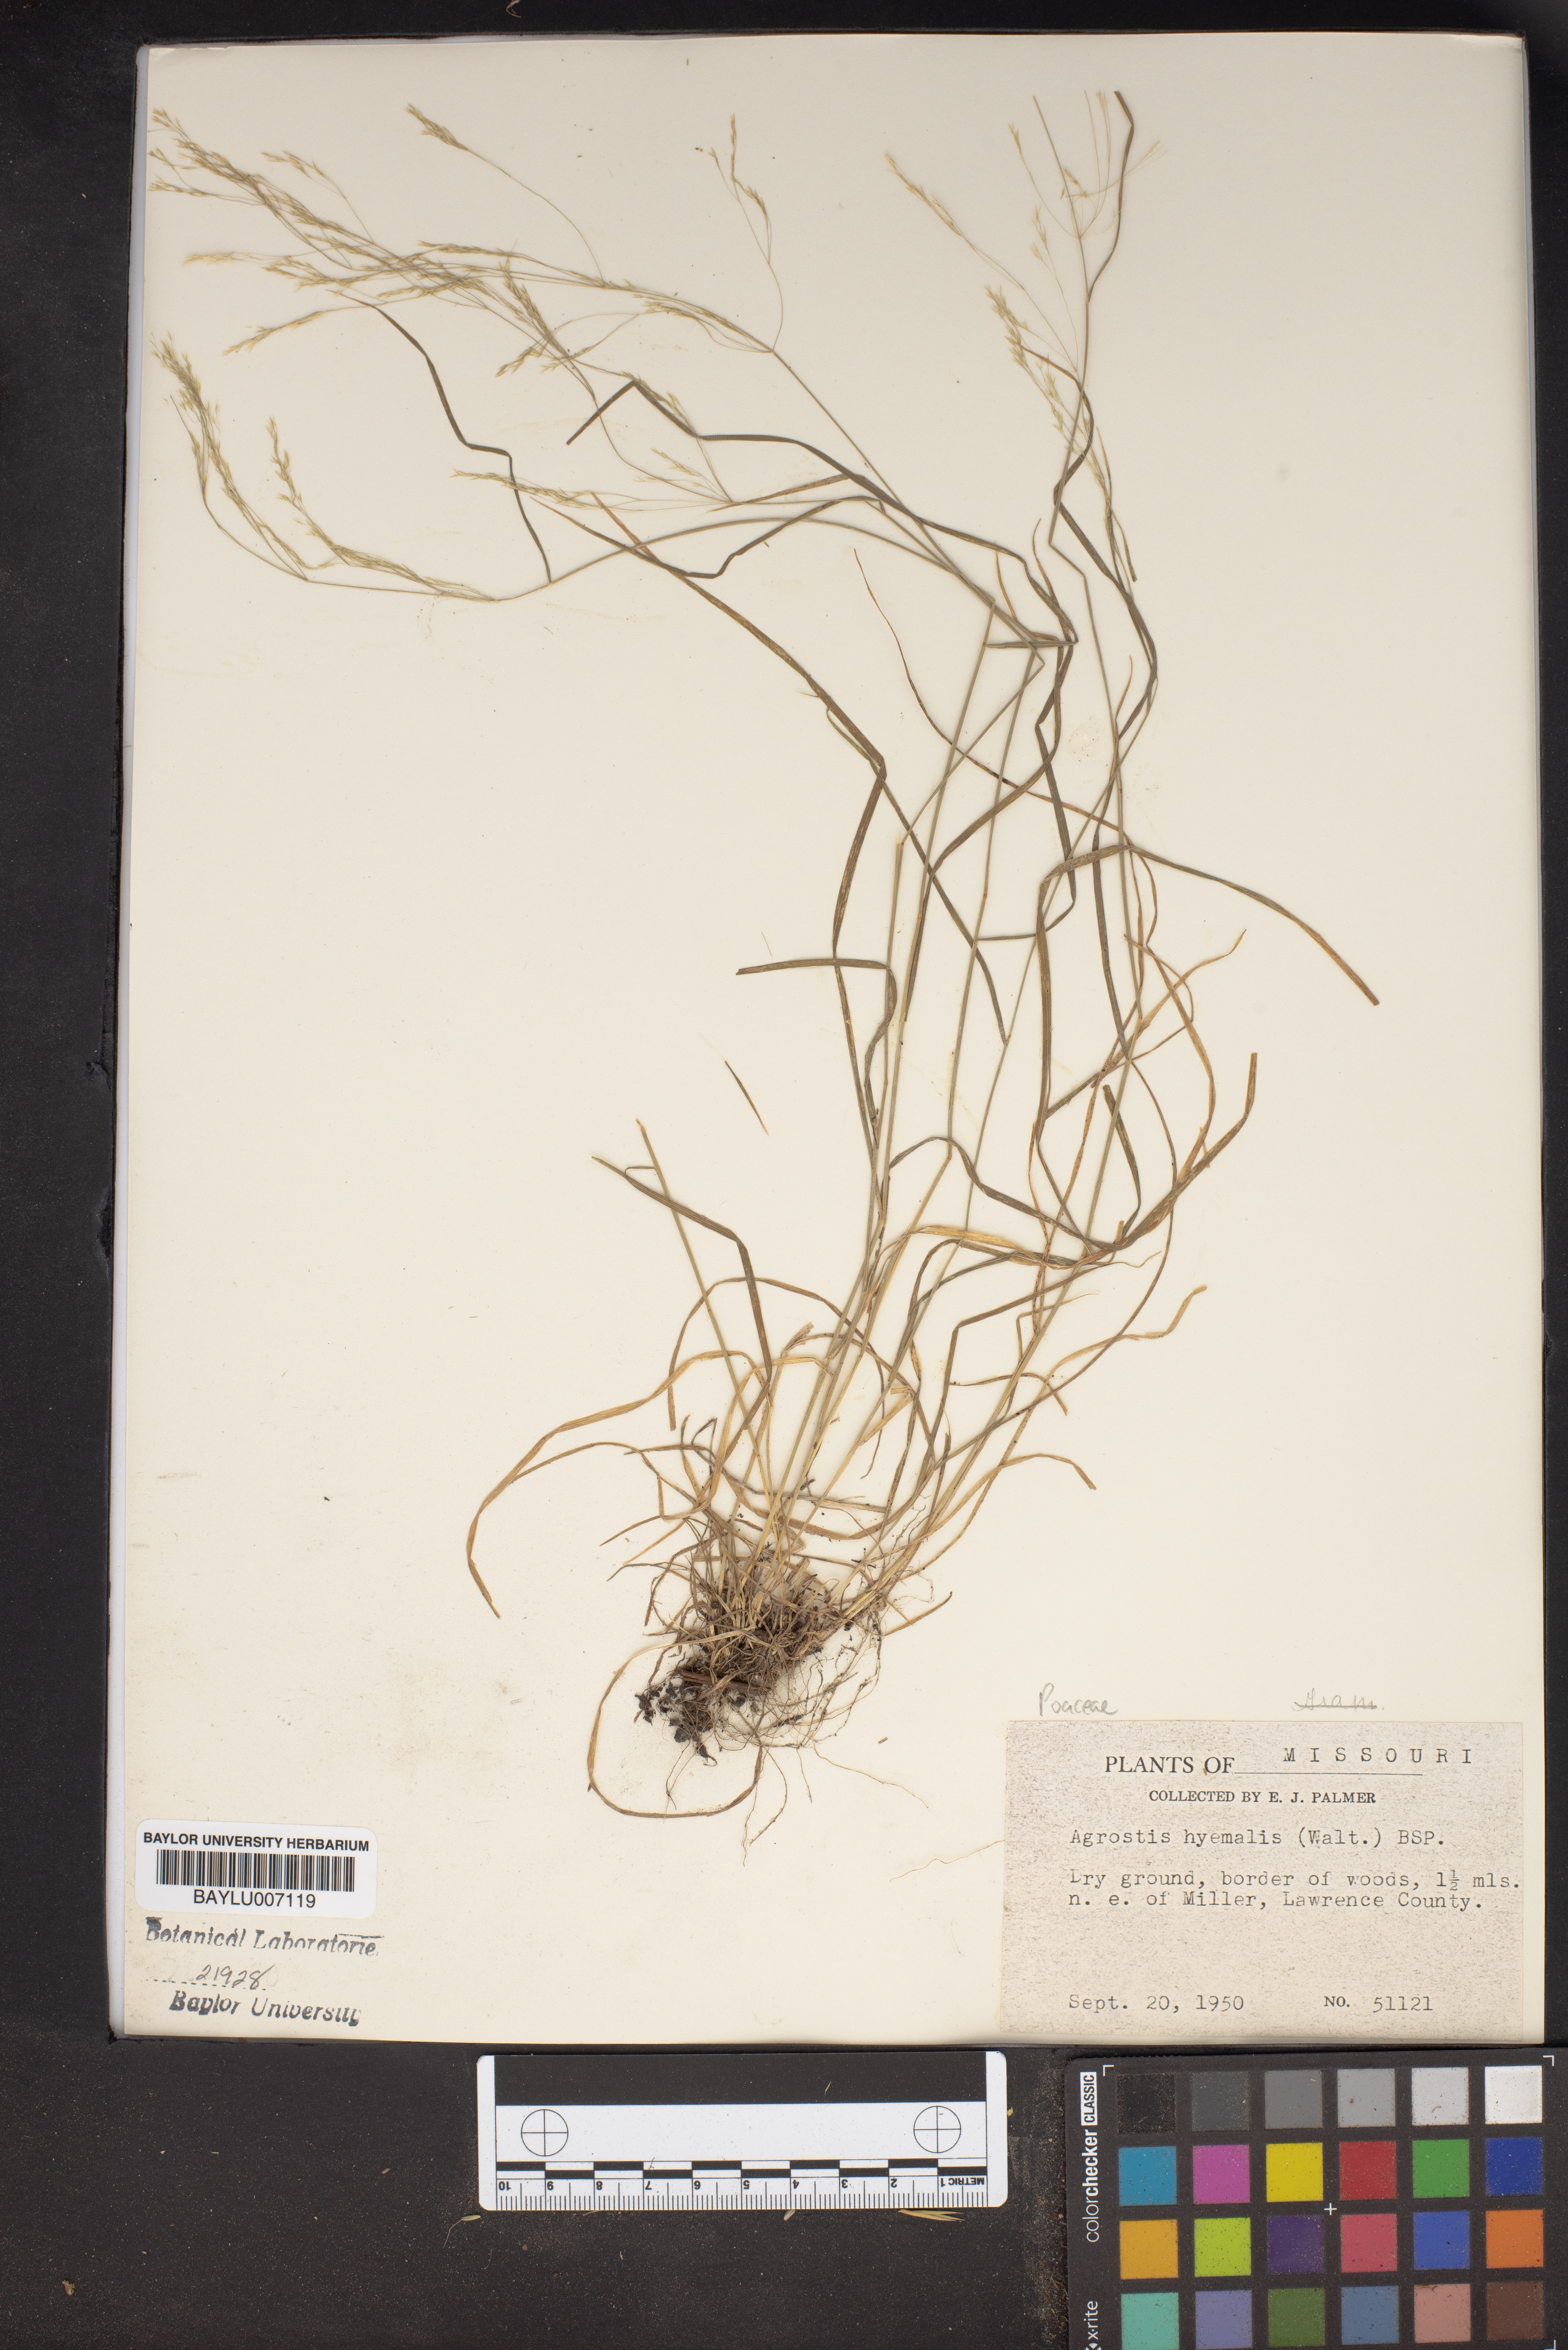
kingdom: Plantae
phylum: Tracheophyta
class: Liliopsida
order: Poales
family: Poaceae
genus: Agrostis
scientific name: Agrostis hyemalis
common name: Small bent
